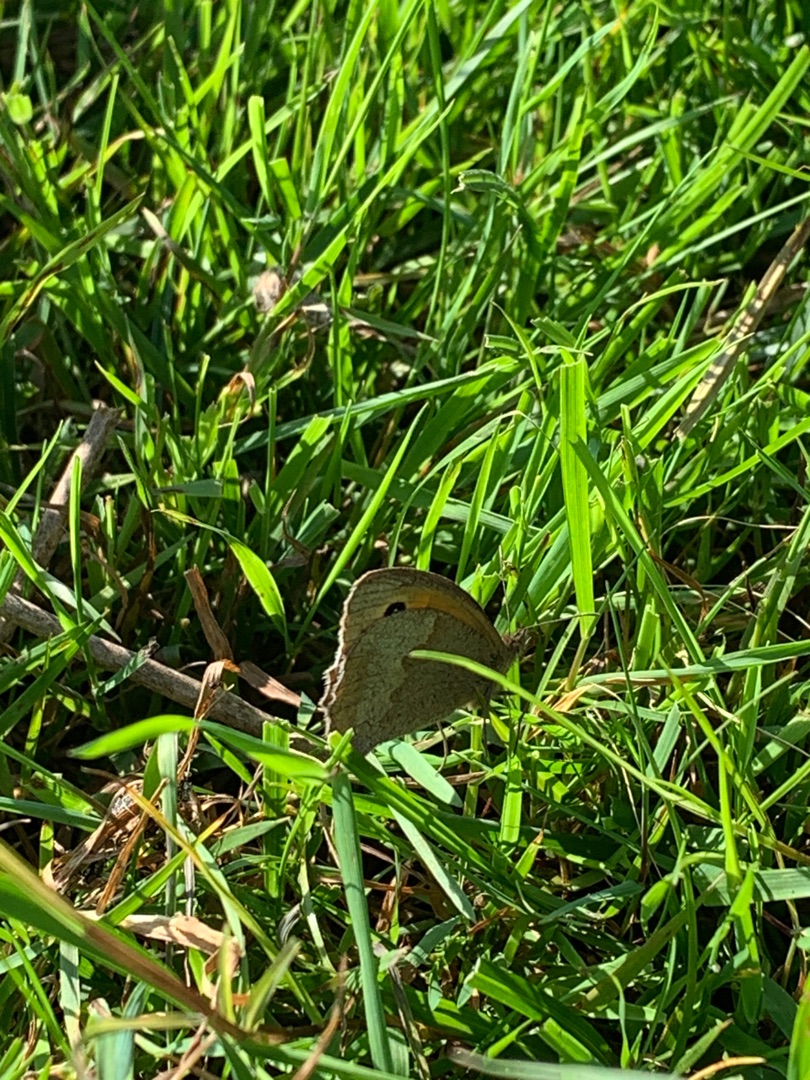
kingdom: Animalia
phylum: Arthropoda
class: Insecta
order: Lepidoptera
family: Nymphalidae
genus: Maniola
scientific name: Maniola jurtina
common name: Græsrandøje
